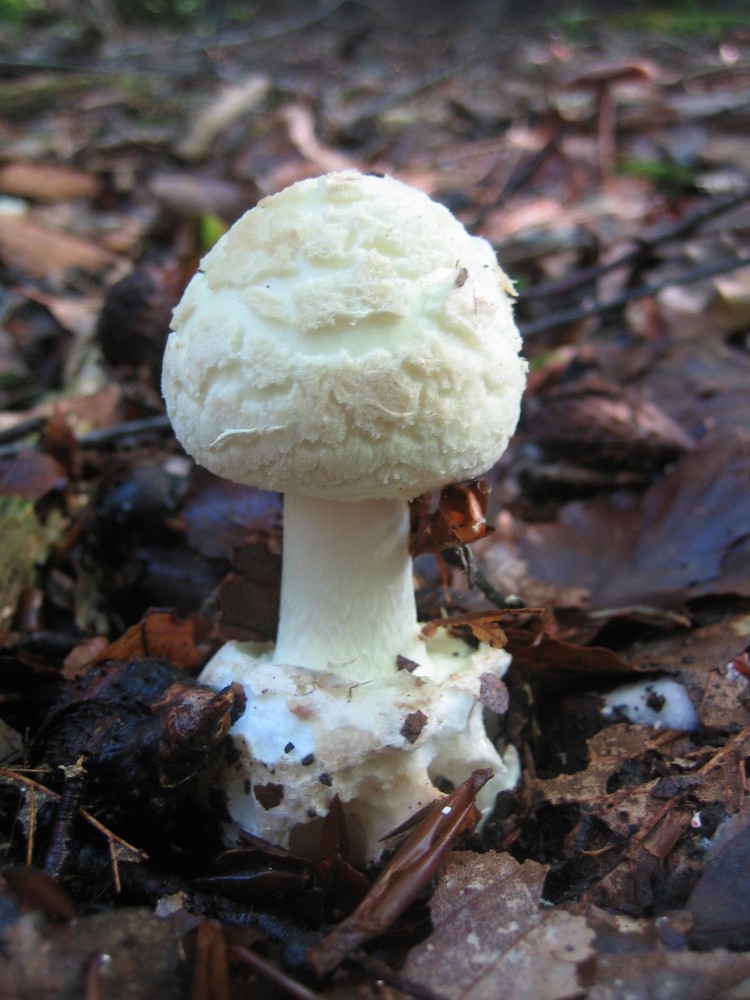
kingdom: Fungi
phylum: Basidiomycota
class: Agaricomycetes
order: Agaricales
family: Amanitaceae
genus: Amanita
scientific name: Amanita citrina
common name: kugleknoldet fluesvamp
